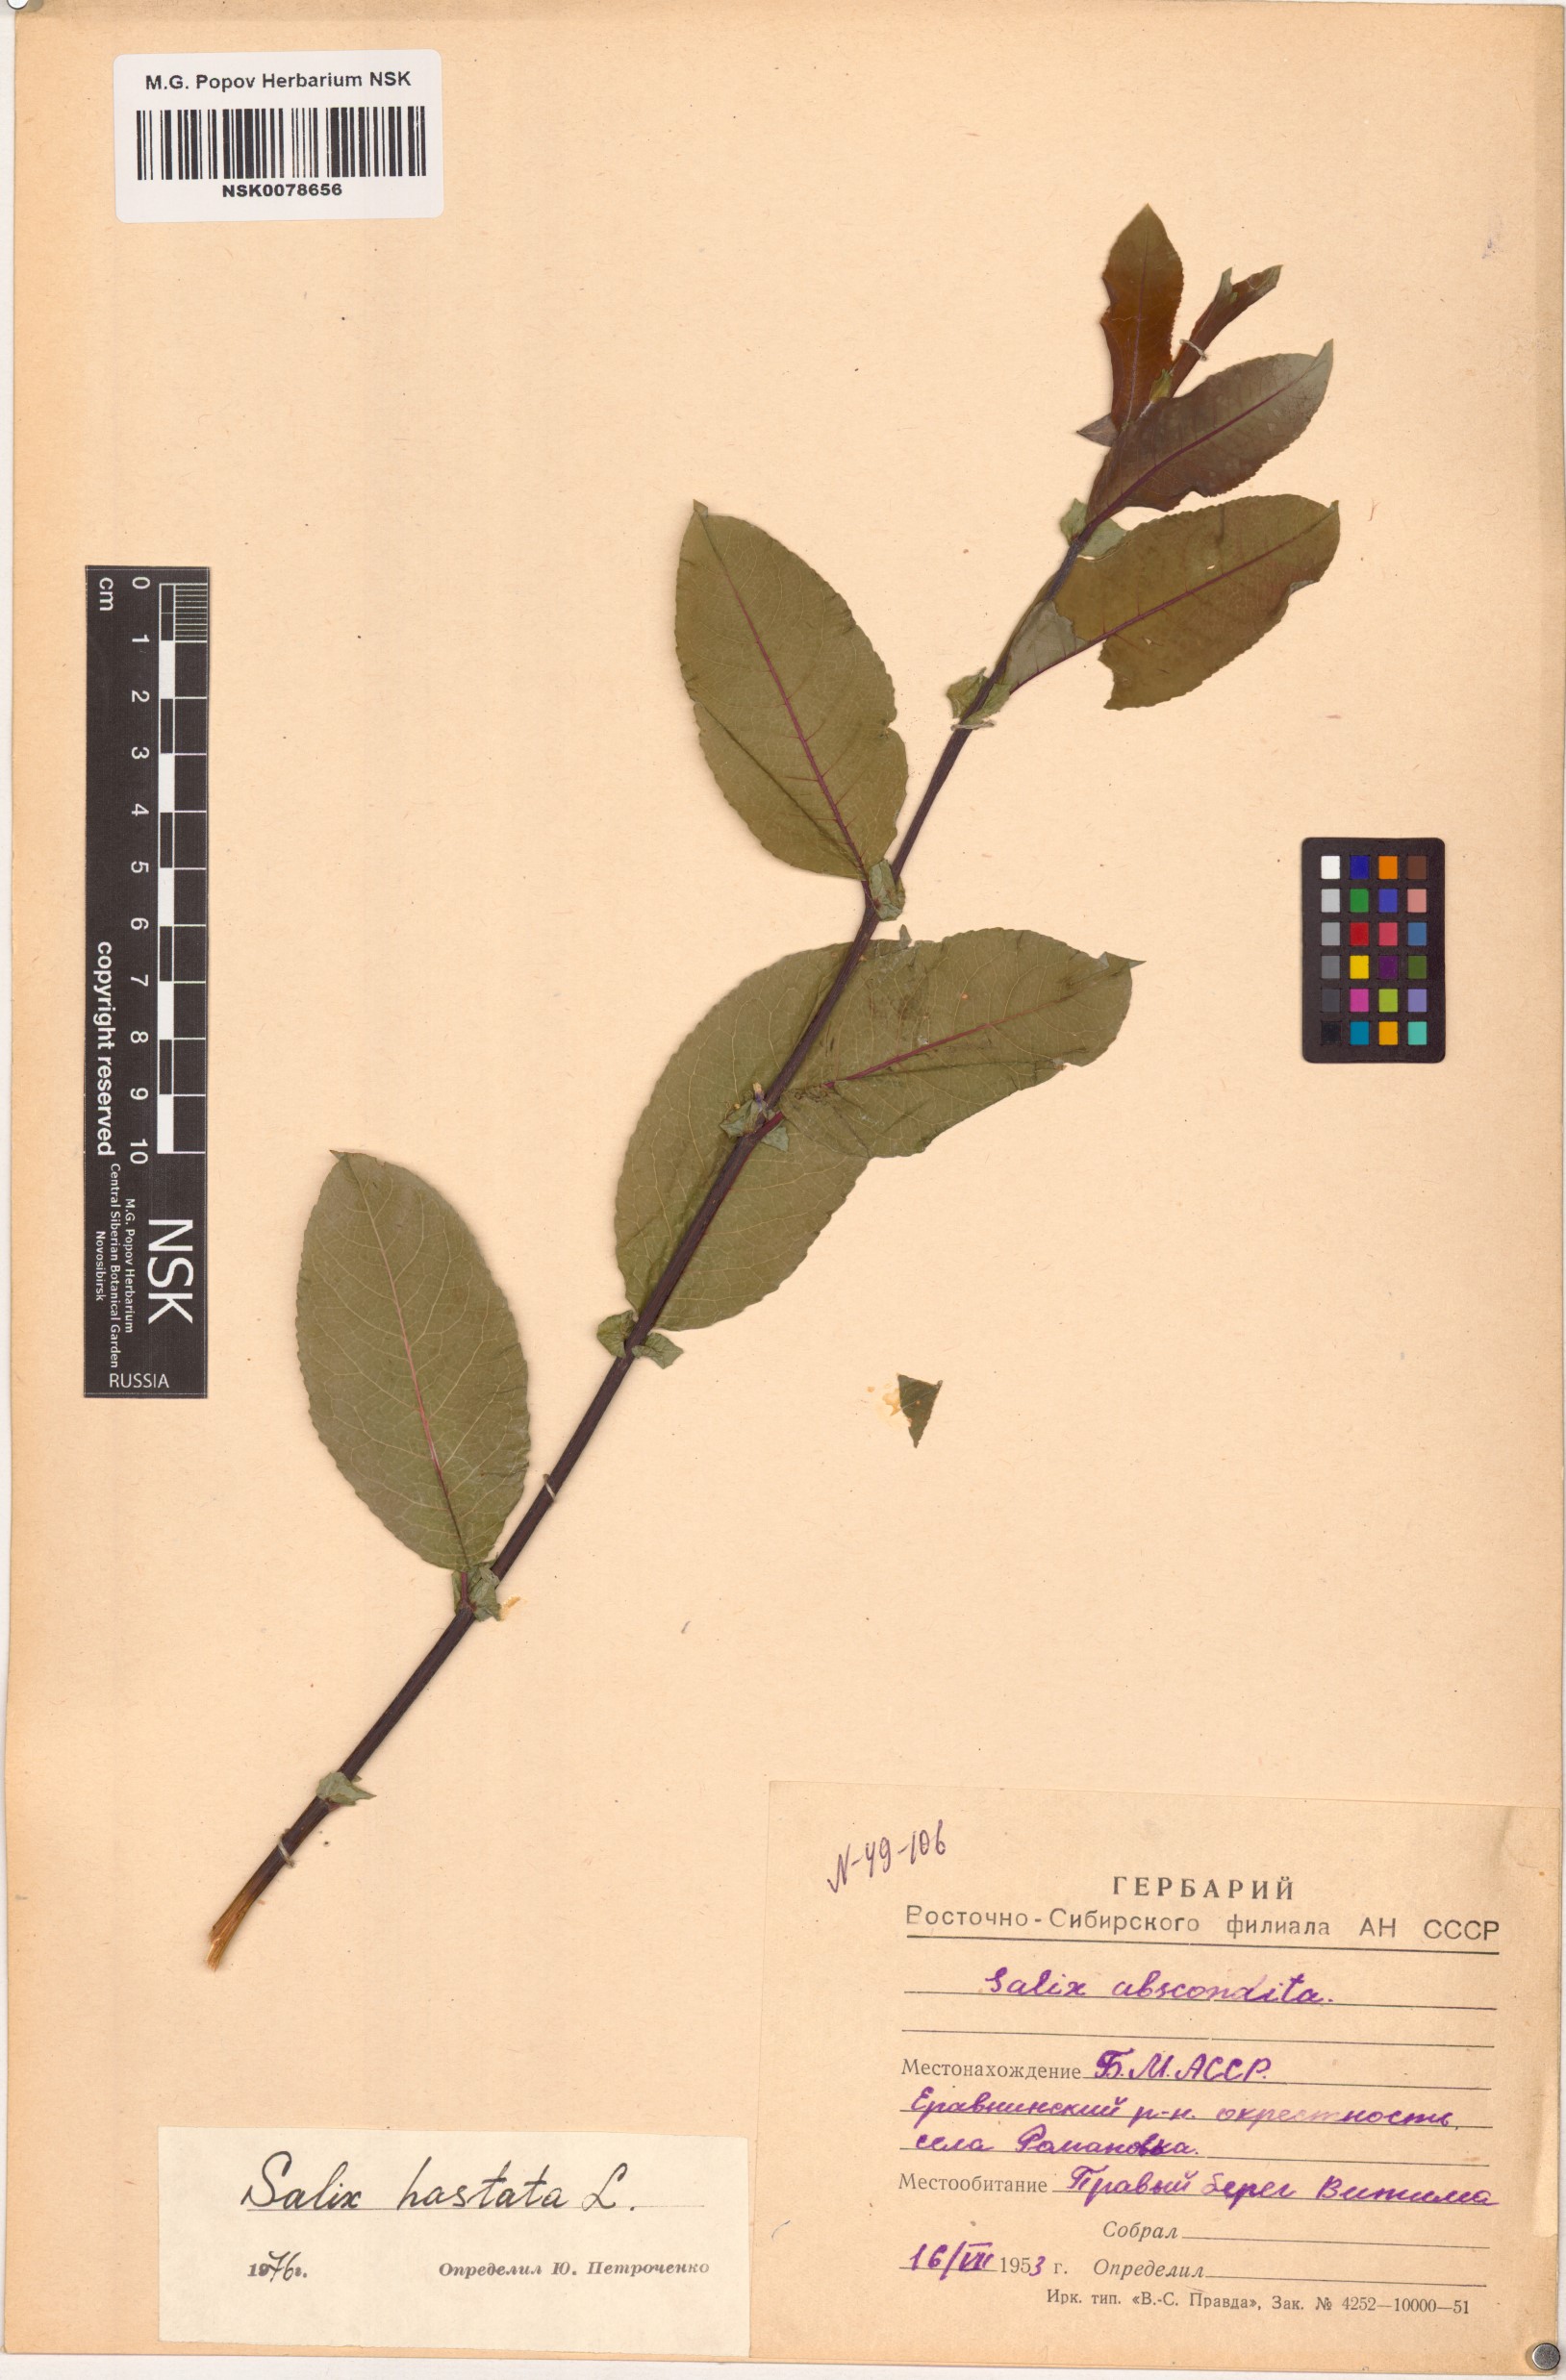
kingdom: Plantae
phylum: Tracheophyta
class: Magnoliopsida
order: Malpighiales
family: Salicaceae
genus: Salix
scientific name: Salix hastata
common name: Halberd willow
